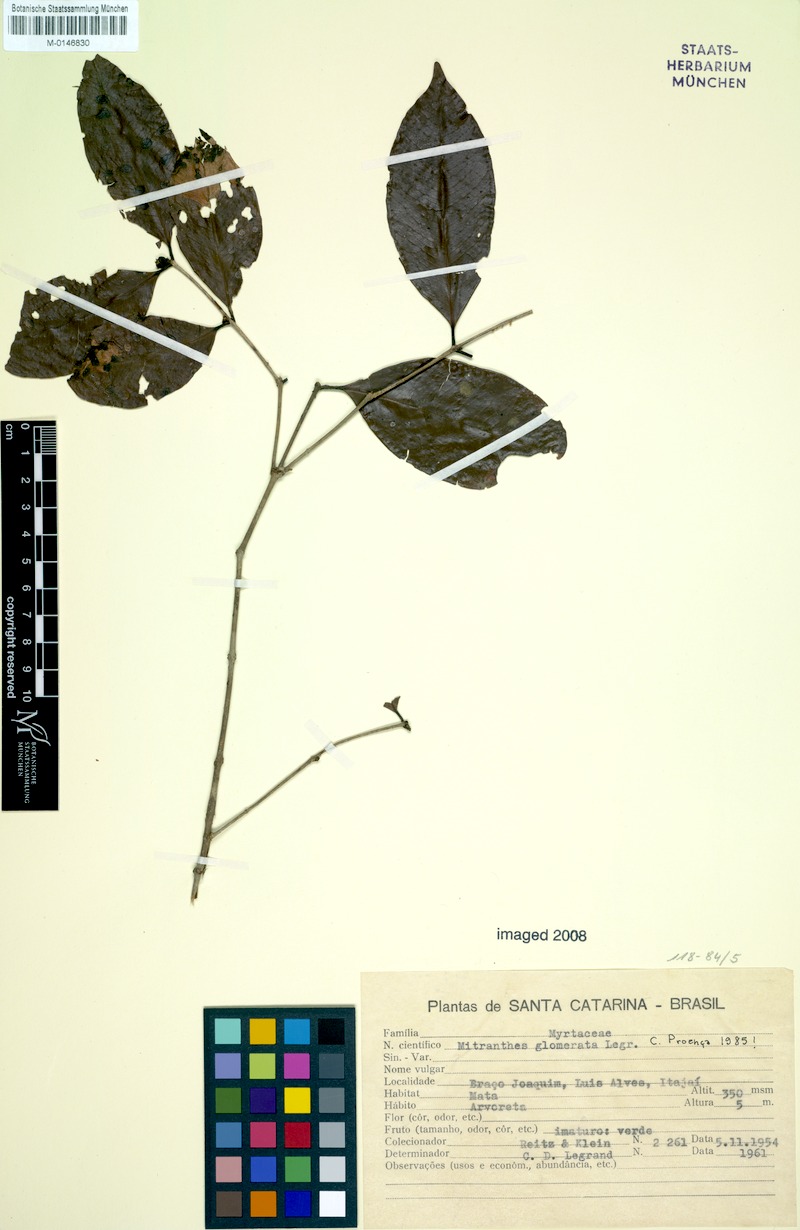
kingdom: Plantae
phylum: Tracheophyta
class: Magnoliopsida
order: Myrtales
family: Myrtaceae
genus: Neomitranthes
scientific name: Neomitranthes glomerata
